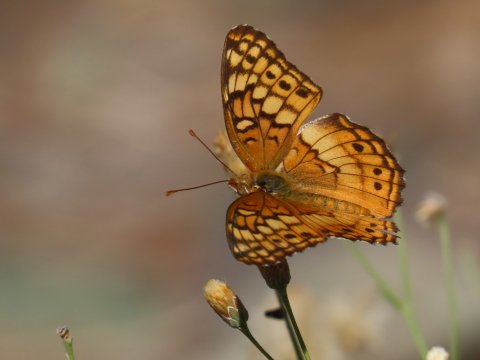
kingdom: Animalia
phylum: Arthropoda
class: Insecta
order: Lepidoptera
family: Nymphalidae
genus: Euptoieta
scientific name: Euptoieta claudia
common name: Variegated Fritillary
